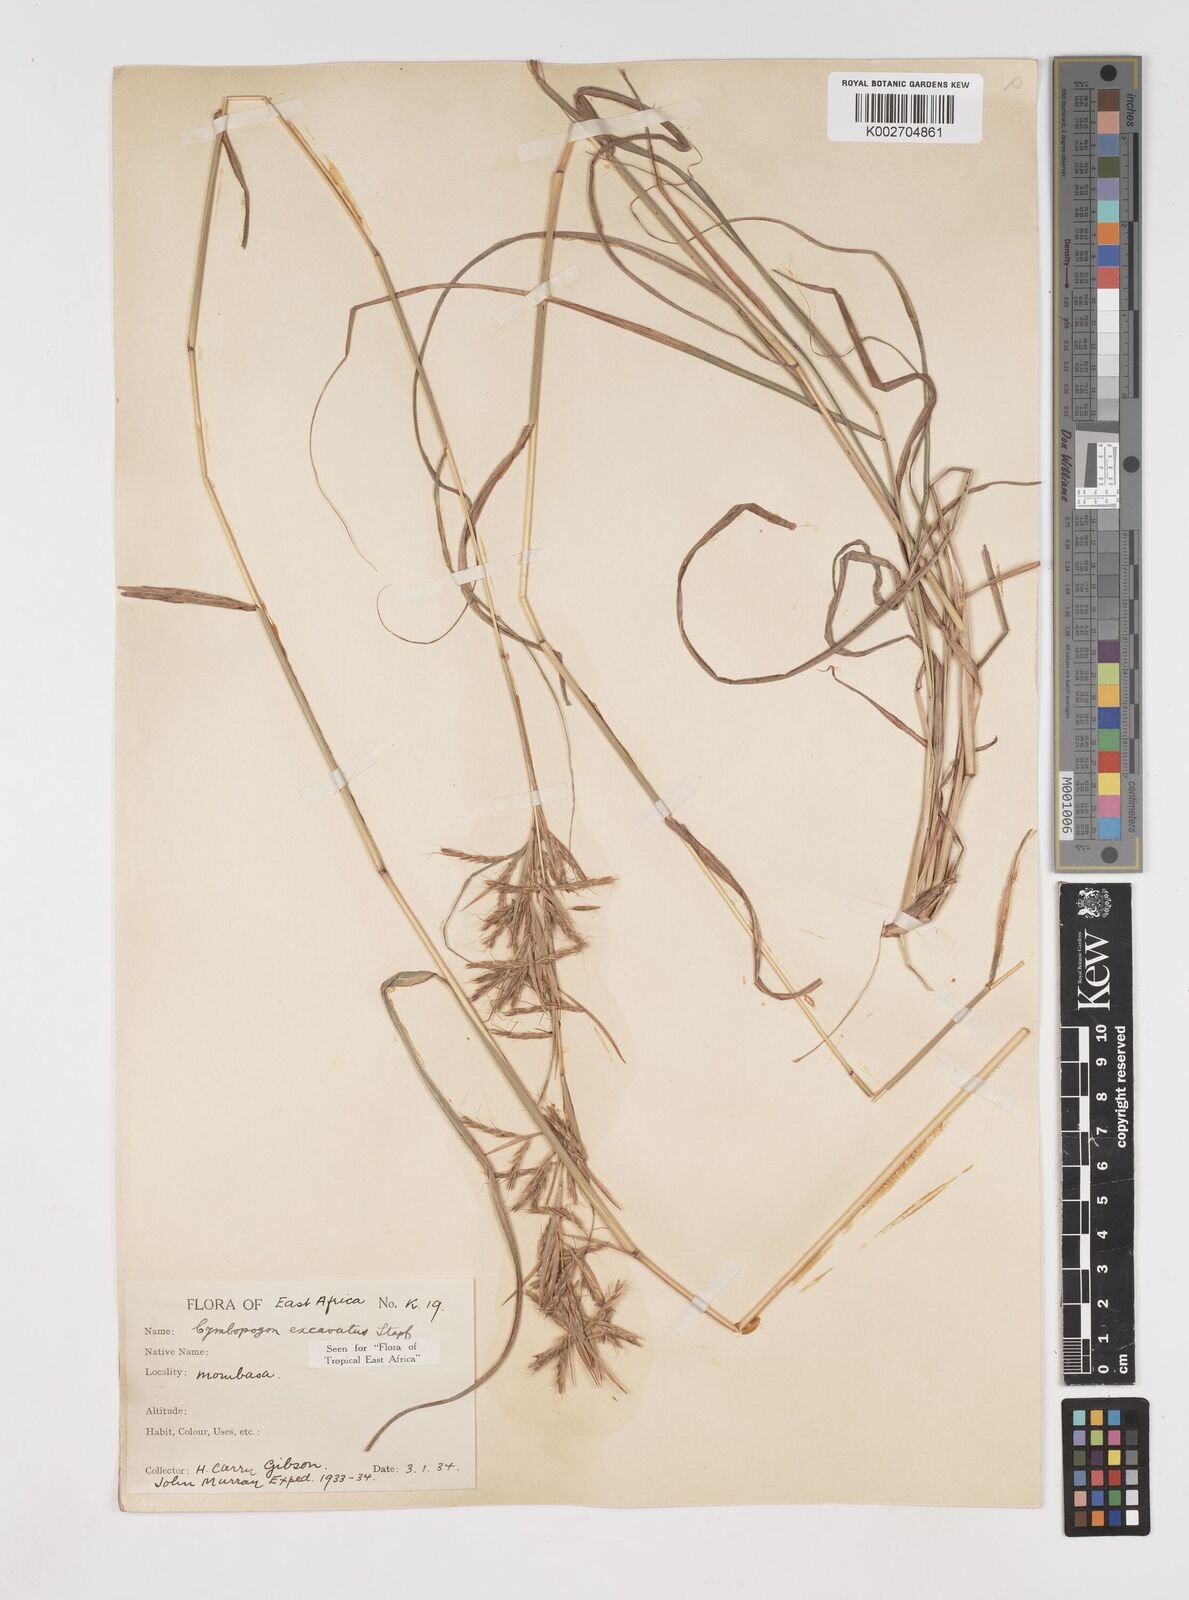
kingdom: Plantae
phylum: Tracheophyta
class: Liliopsida
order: Poales
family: Poaceae
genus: Cymbopogon
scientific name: Cymbopogon caesius
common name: Kachi grass
